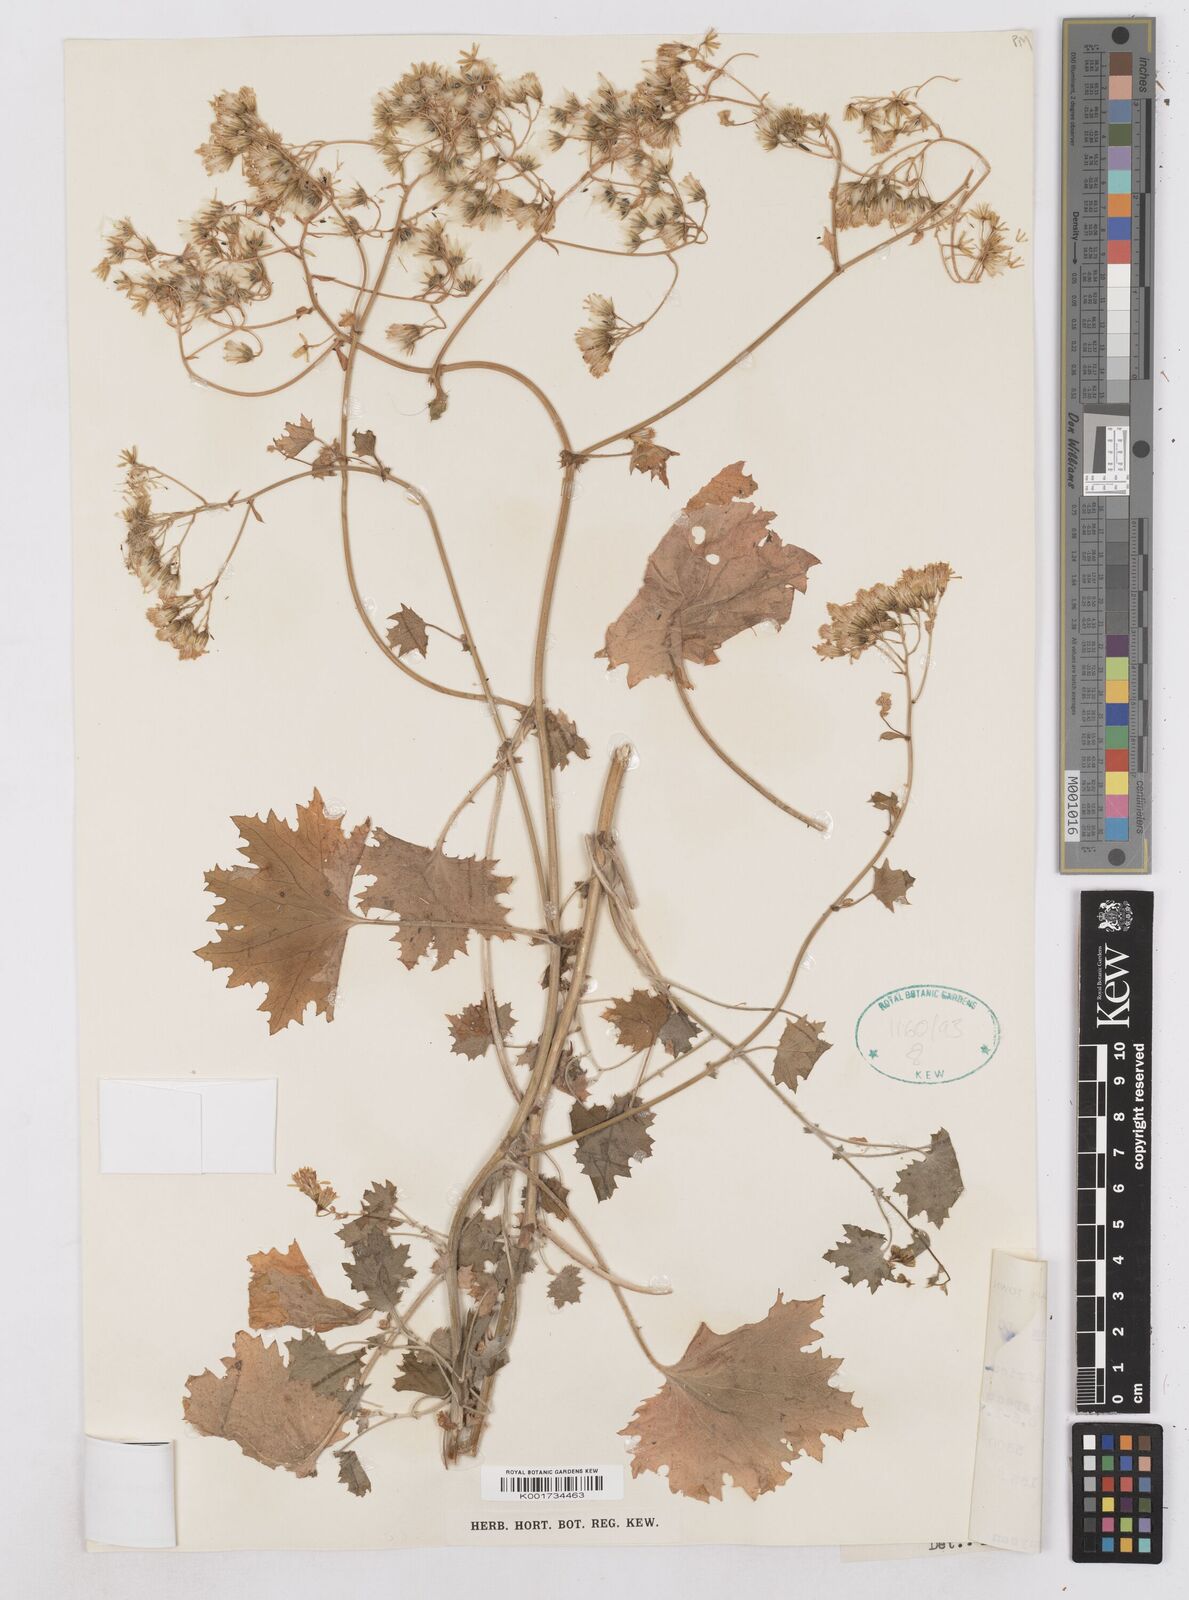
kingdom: Plantae
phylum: Tracheophyta
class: Magnoliopsida
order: Asterales
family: Asteraceae
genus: Cineraria
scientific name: Cineraria alchemilloides
